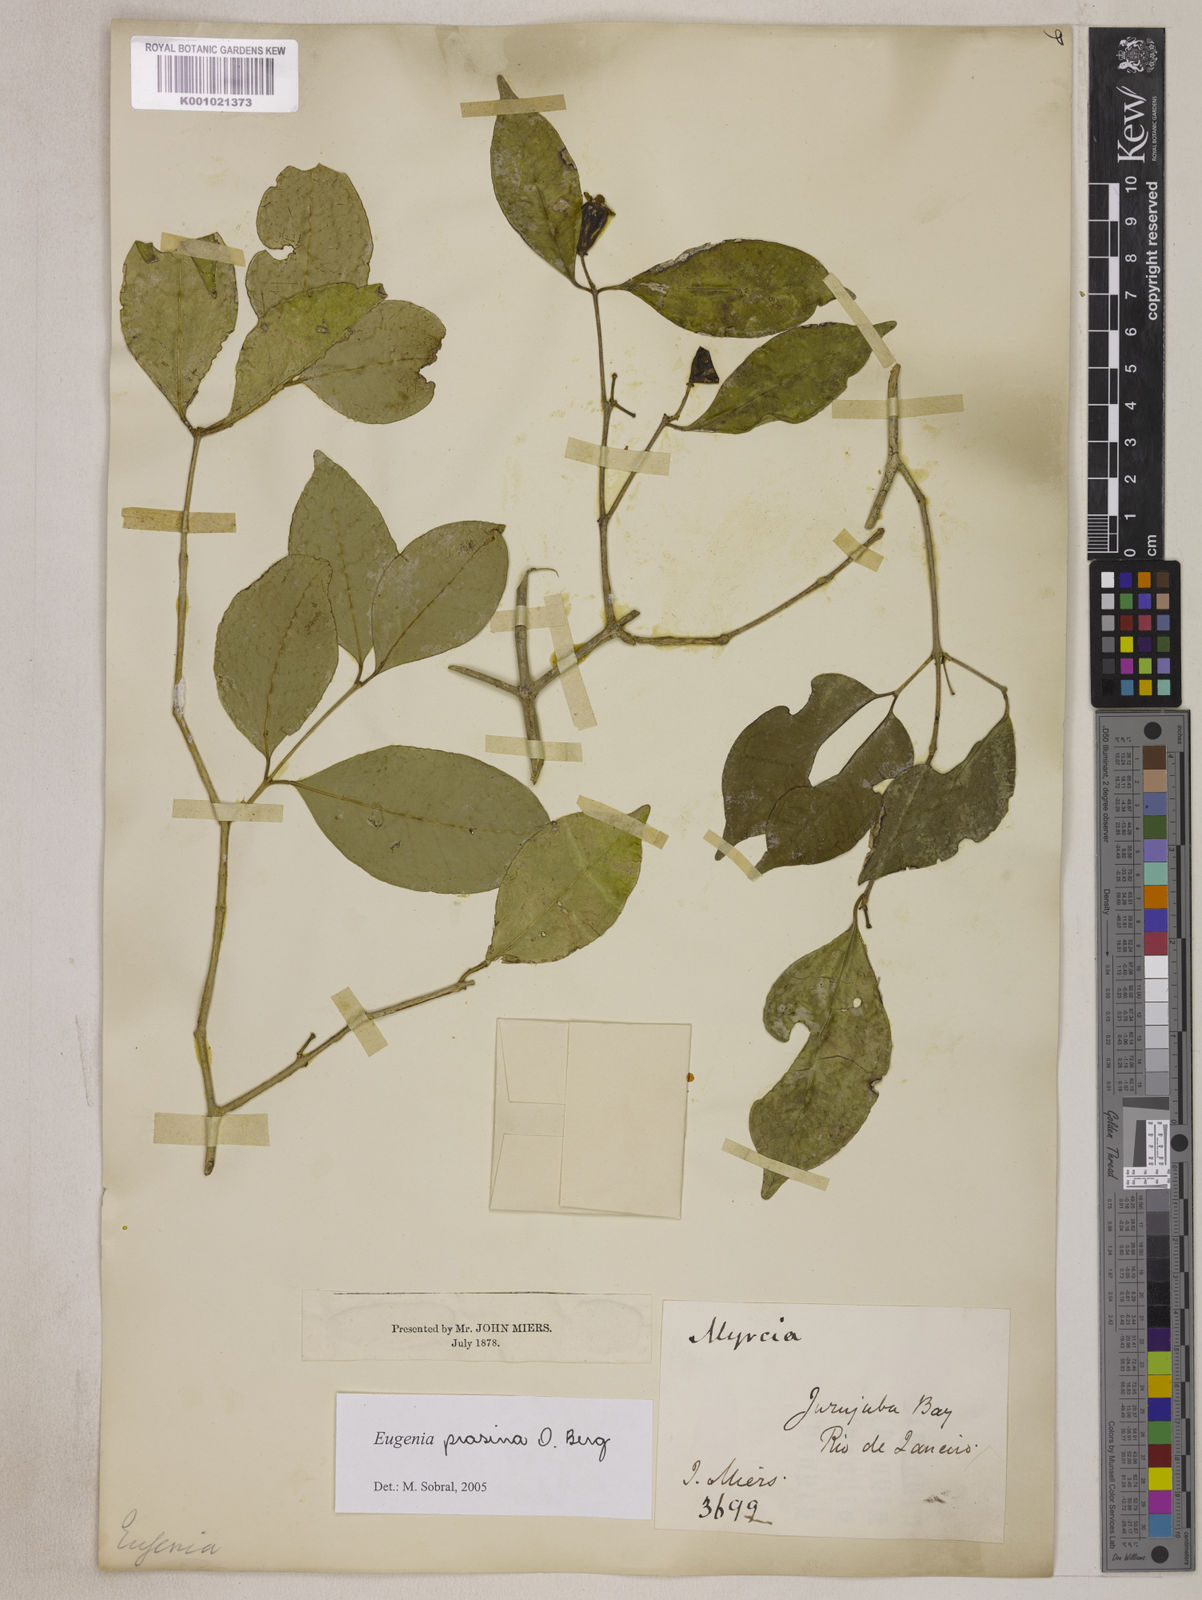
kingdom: Plantae
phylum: Tracheophyta
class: Magnoliopsida
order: Myrtales
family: Myrtaceae
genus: Eugenia
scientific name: Eugenia prasina
